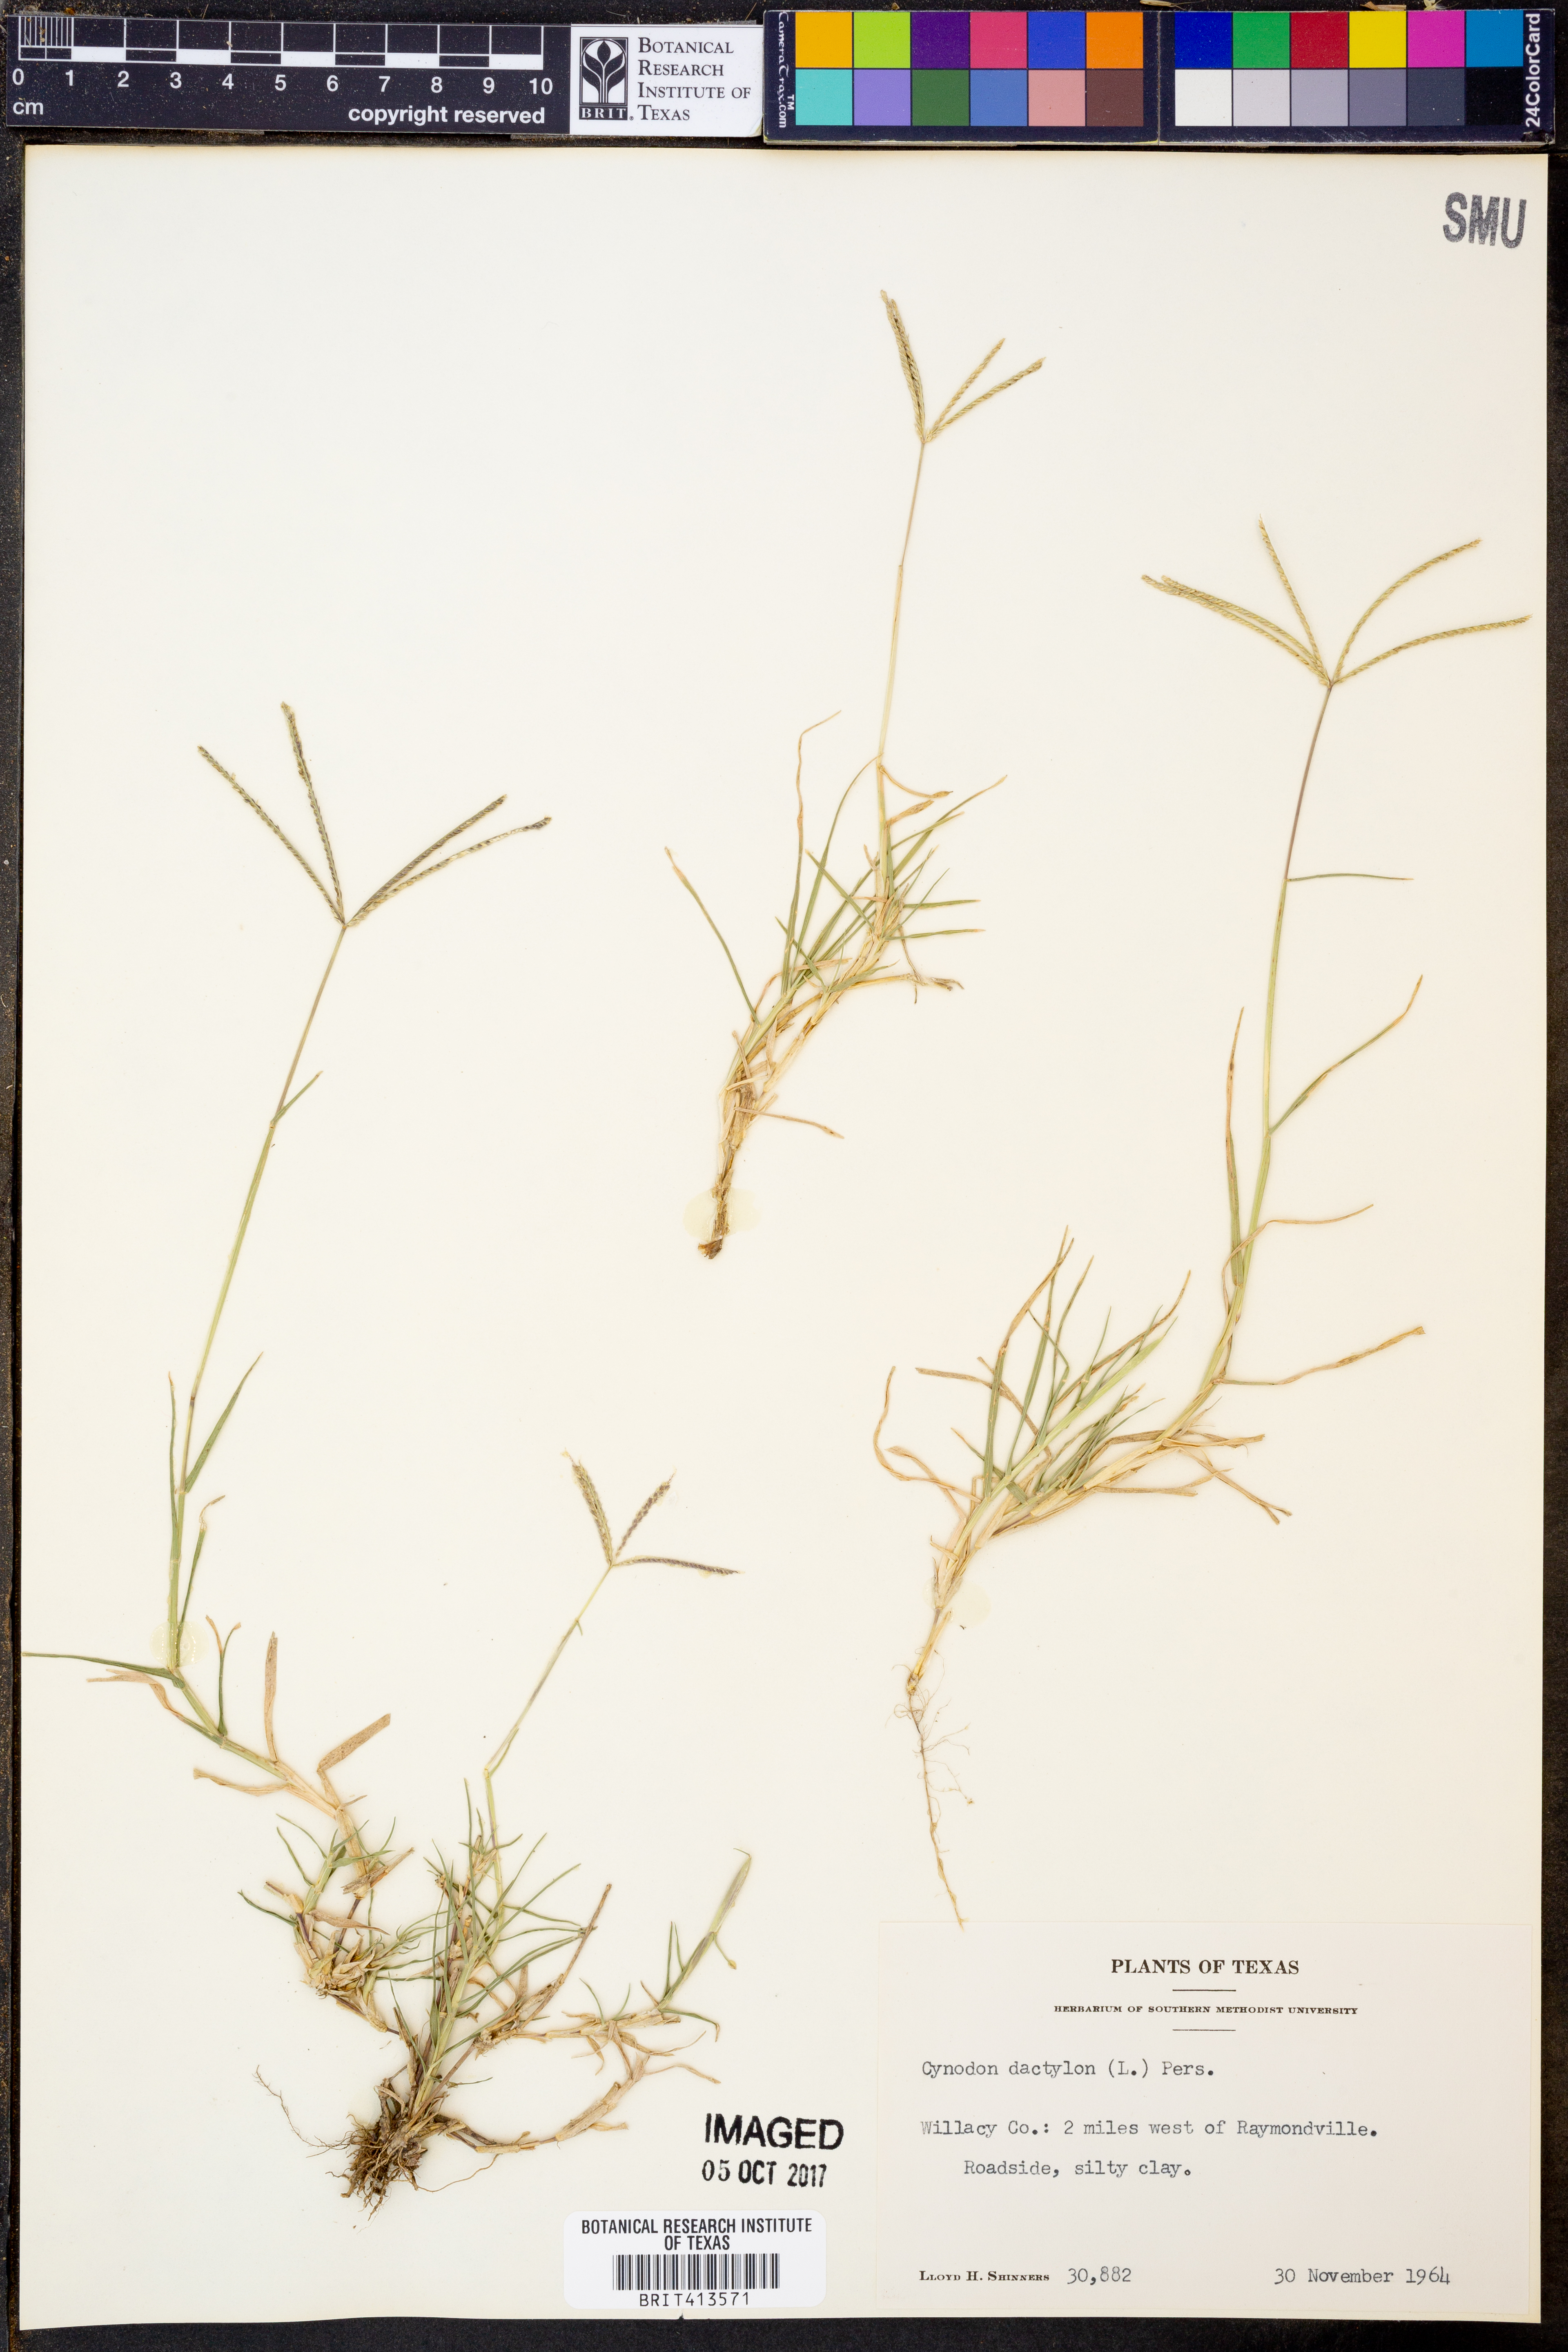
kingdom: Plantae
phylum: Tracheophyta
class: Liliopsida
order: Poales
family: Poaceae
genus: Cynodon
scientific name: Cynodon dactylon
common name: Bermuda grass
